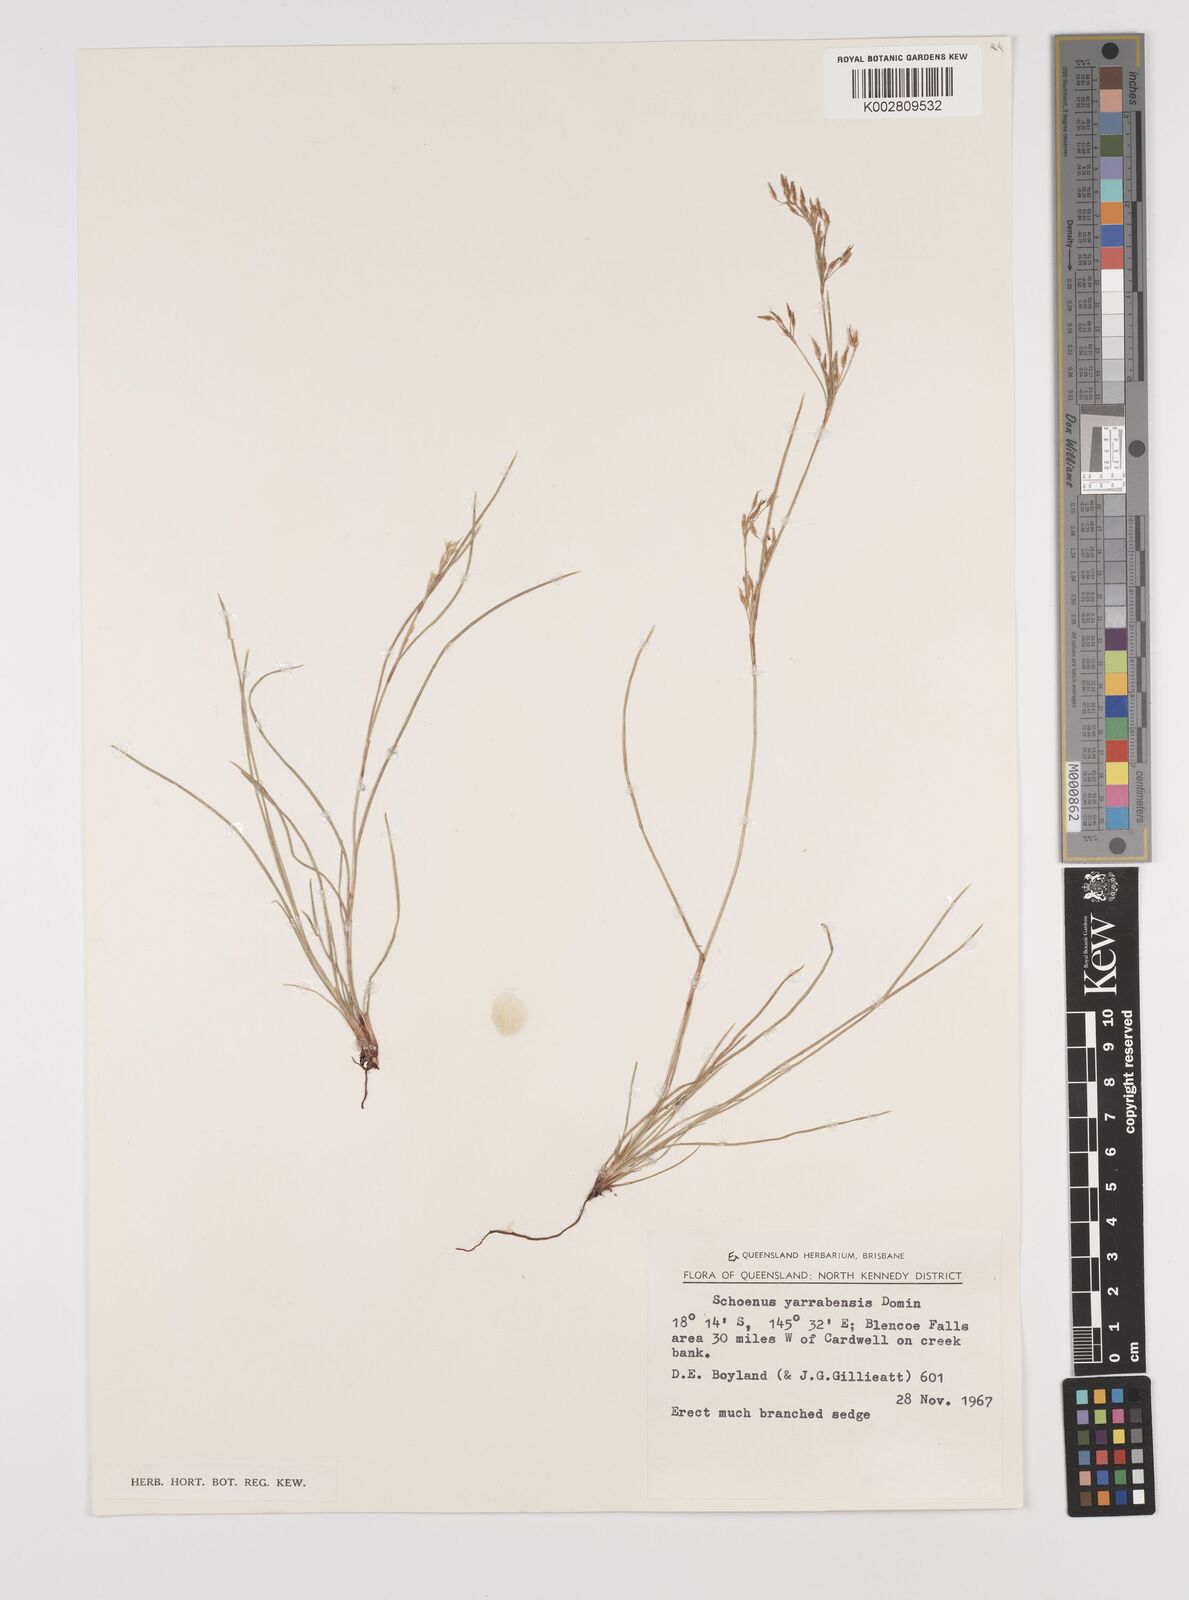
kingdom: Plantae
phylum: Tracheophyta
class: Liliopsida
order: Poales
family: Cyperaceae
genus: Schoenus
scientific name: Schoenus yarrabensis
